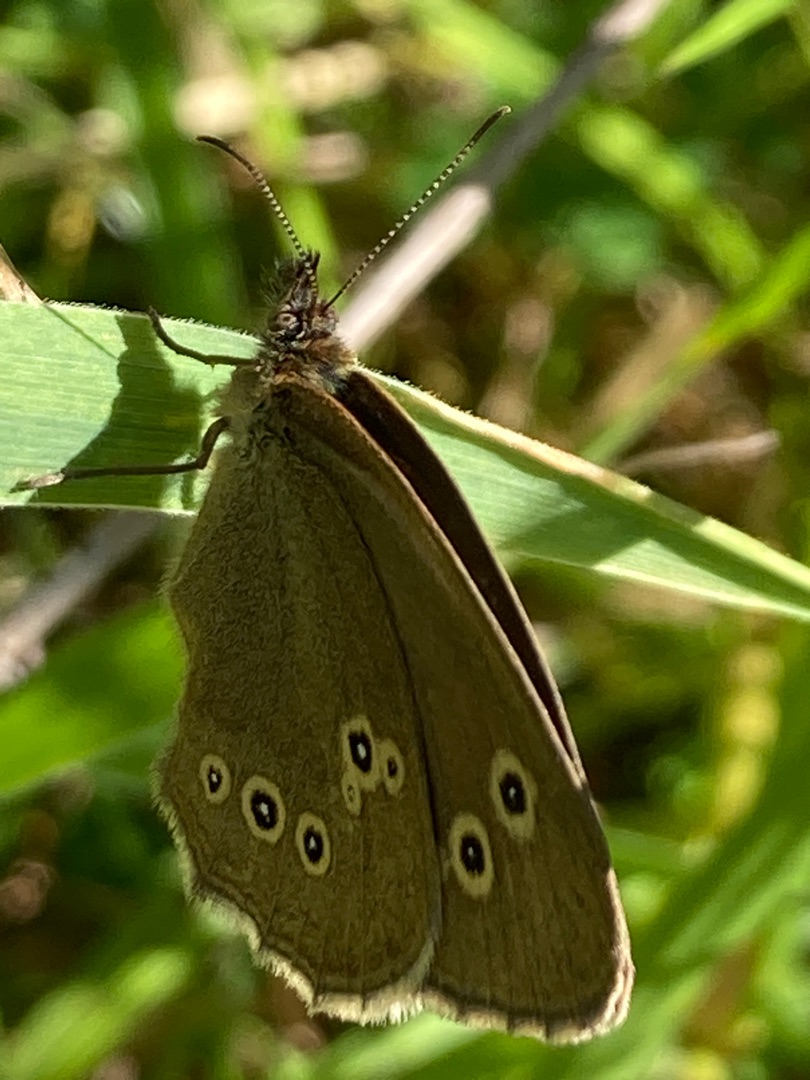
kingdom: Animalia
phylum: Arthropoda
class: Insecta
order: Lepidoptera
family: Nymphalidae
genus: Aphantopus
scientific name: Aphantopus hyperantus
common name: Engrandøje
